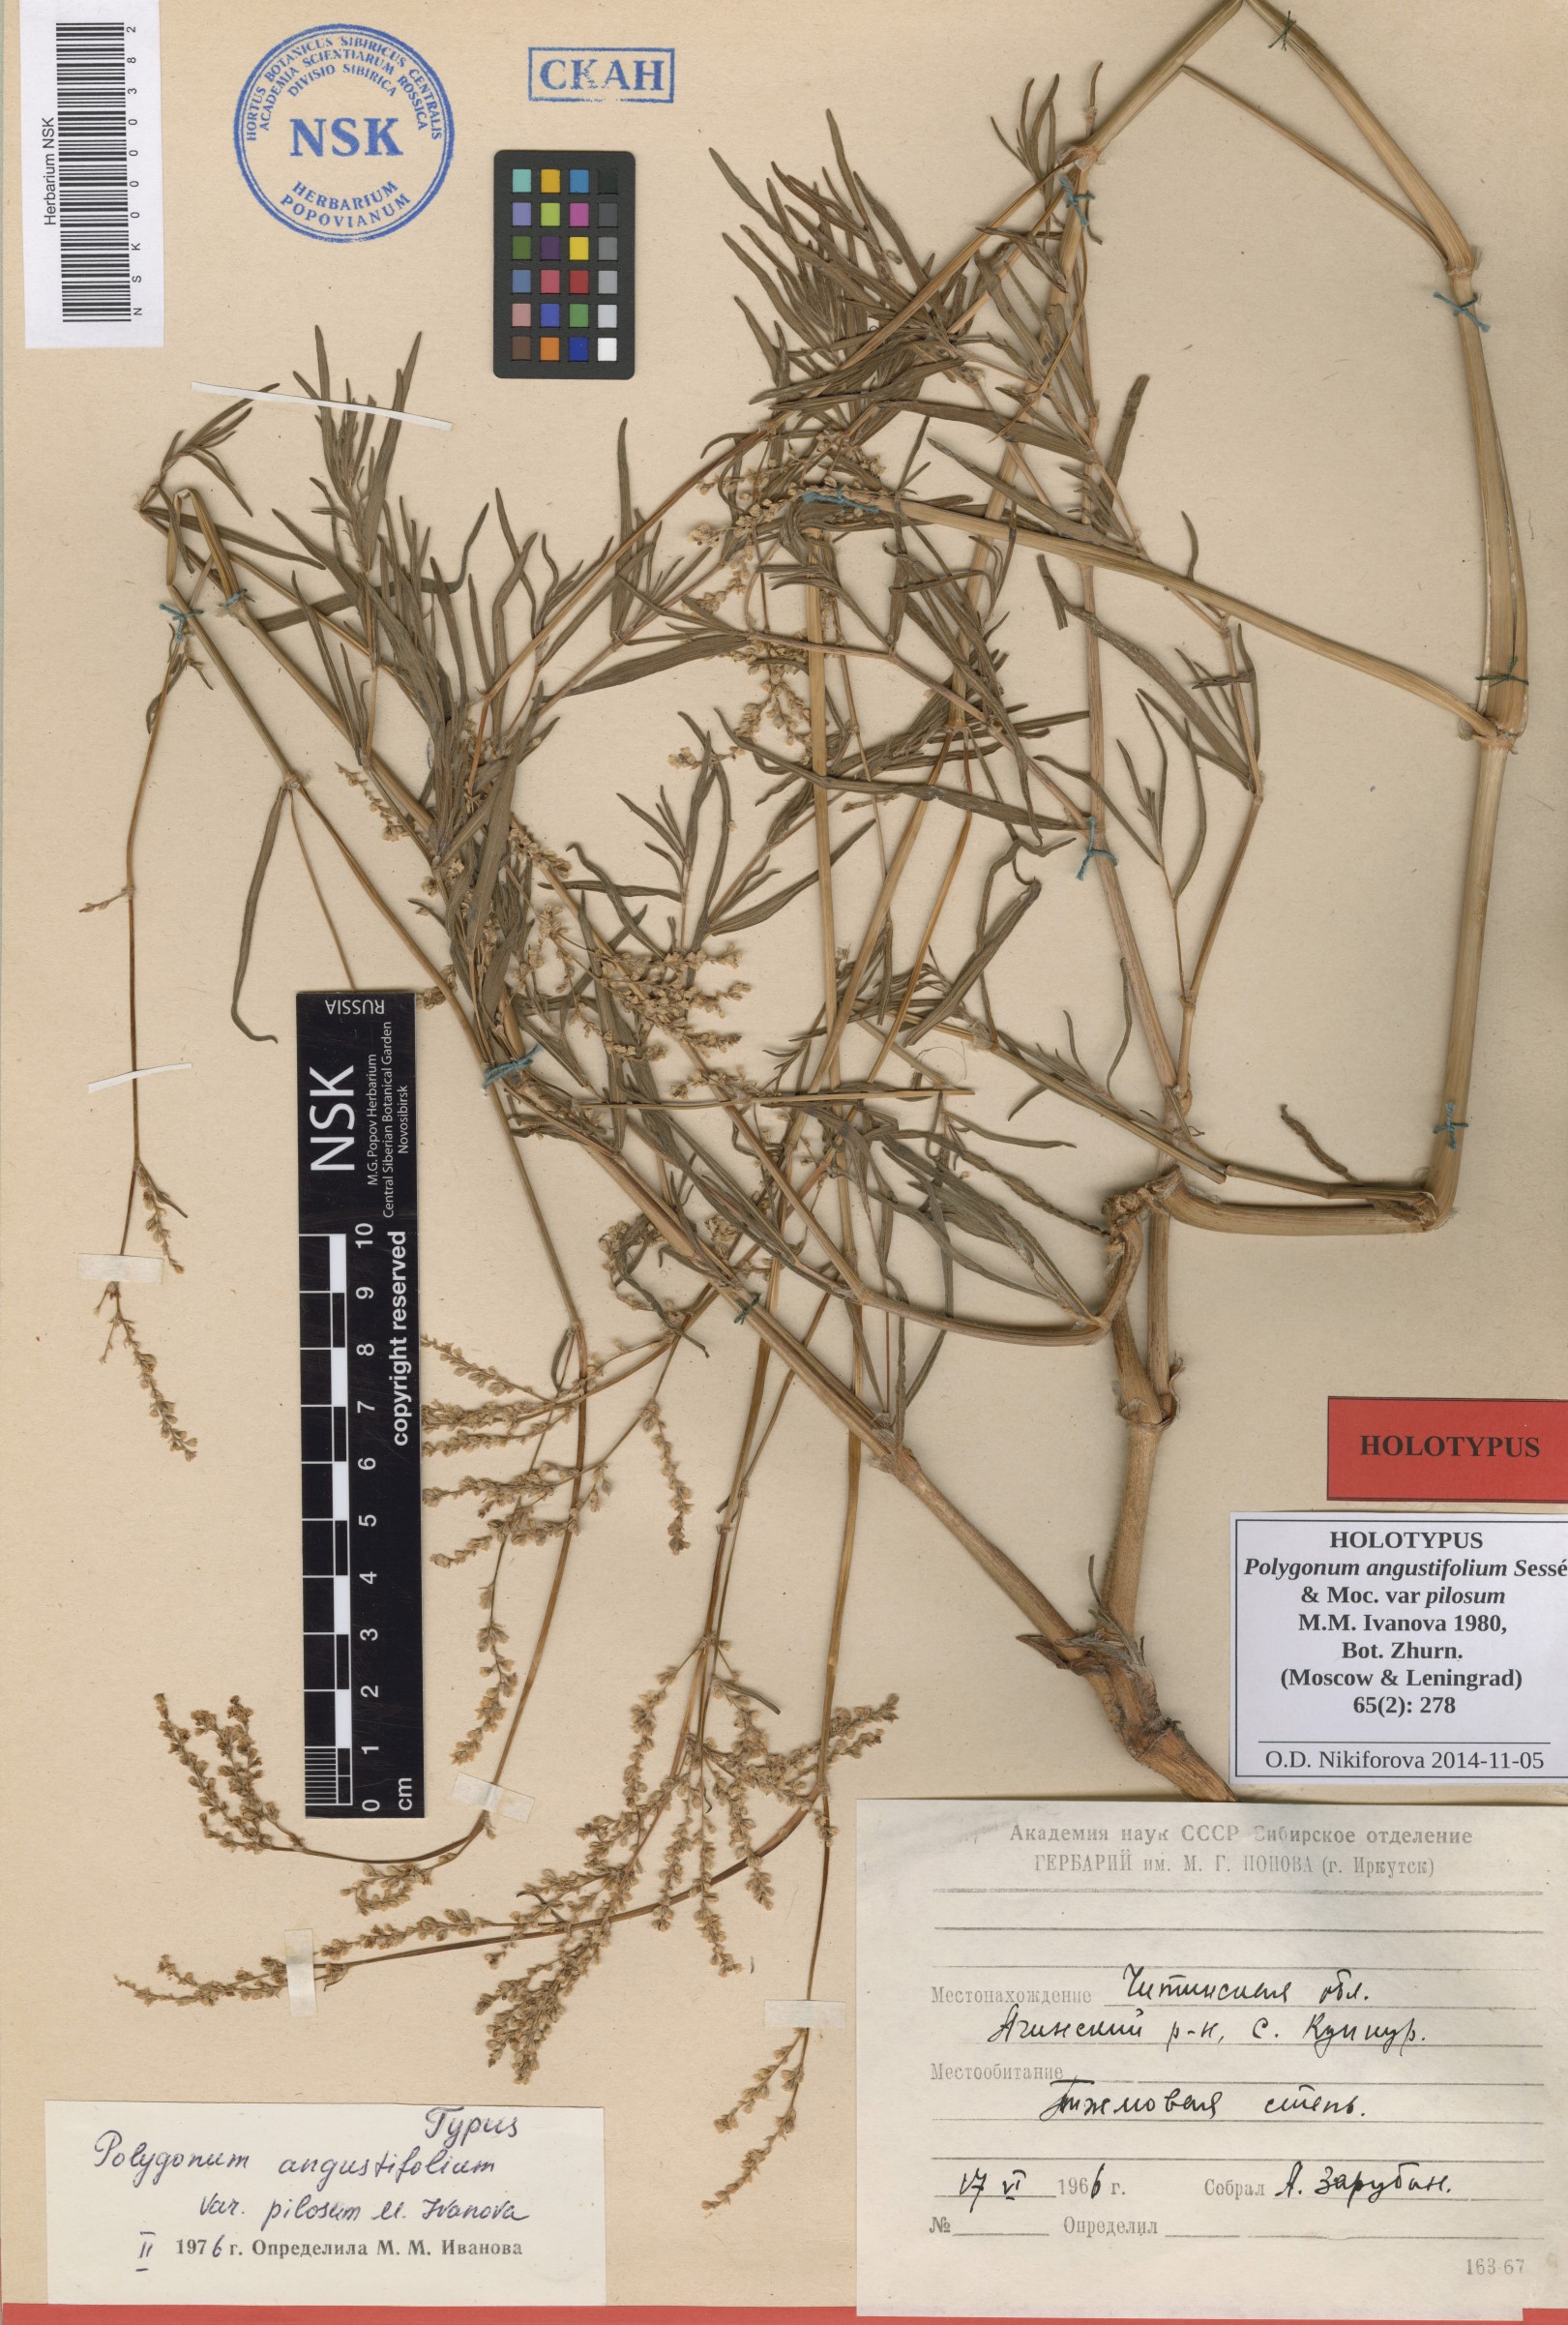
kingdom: Plantae
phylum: Tracheophyta
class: Magnoliopsida
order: Caryophyllales
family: Polygonaceae
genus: Persicaria
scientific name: Persicaria angustifolia
